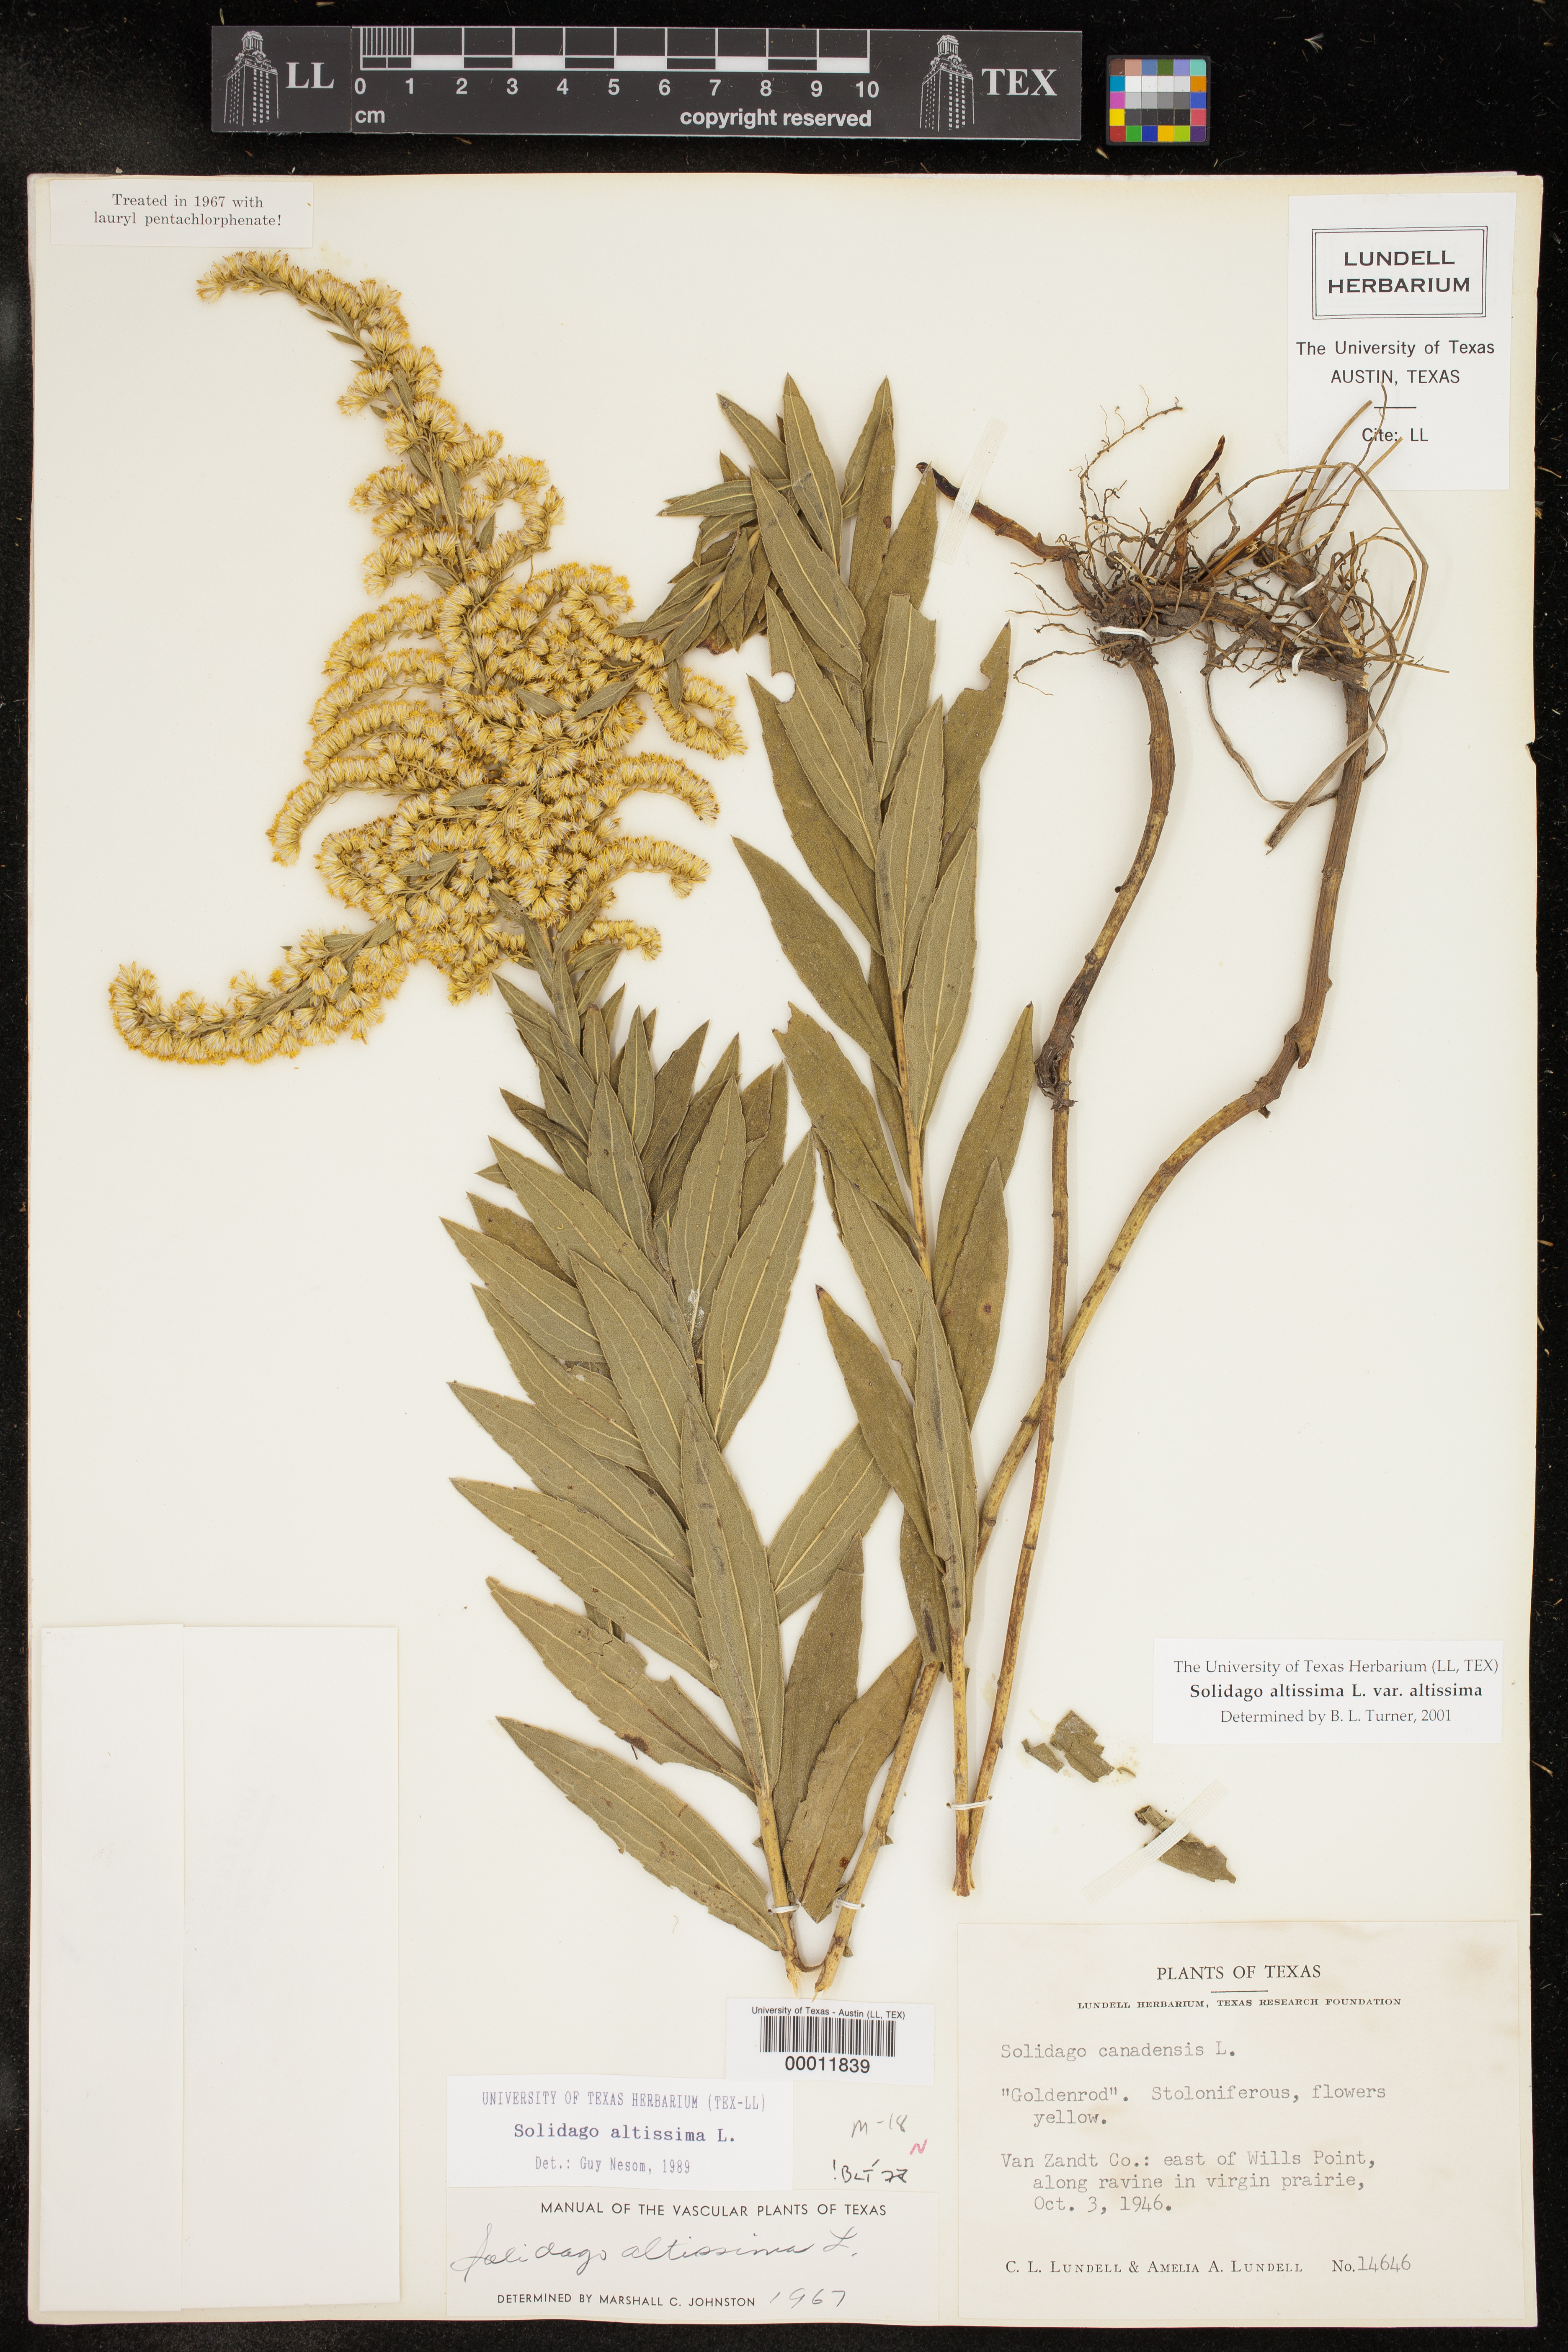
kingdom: Plantae
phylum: Tracheophyta
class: Magnoliopsida
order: Asterales
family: Asteraceae
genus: Solidago
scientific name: Solidago altissima
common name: Late goldenrod
